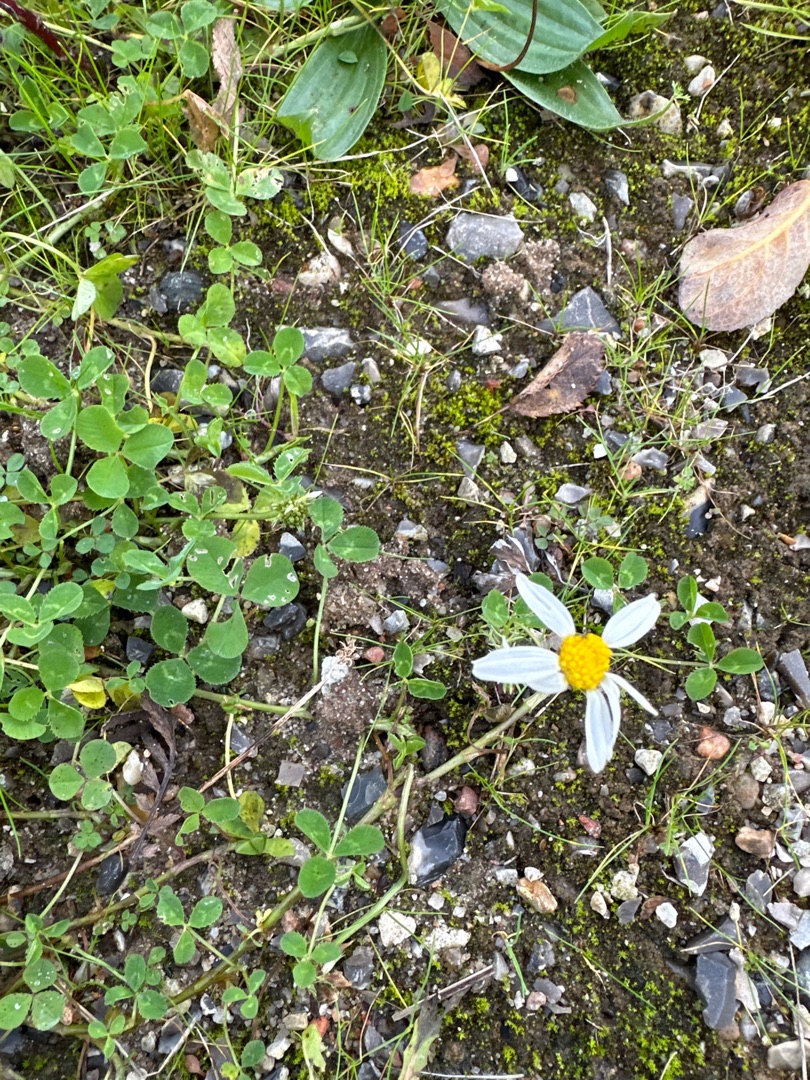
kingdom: Plantae
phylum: Tracheophyta
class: Magnoliopsida
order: Asterales
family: Asteraceae
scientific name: Asteraceae
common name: Kurvblomstfamilien
